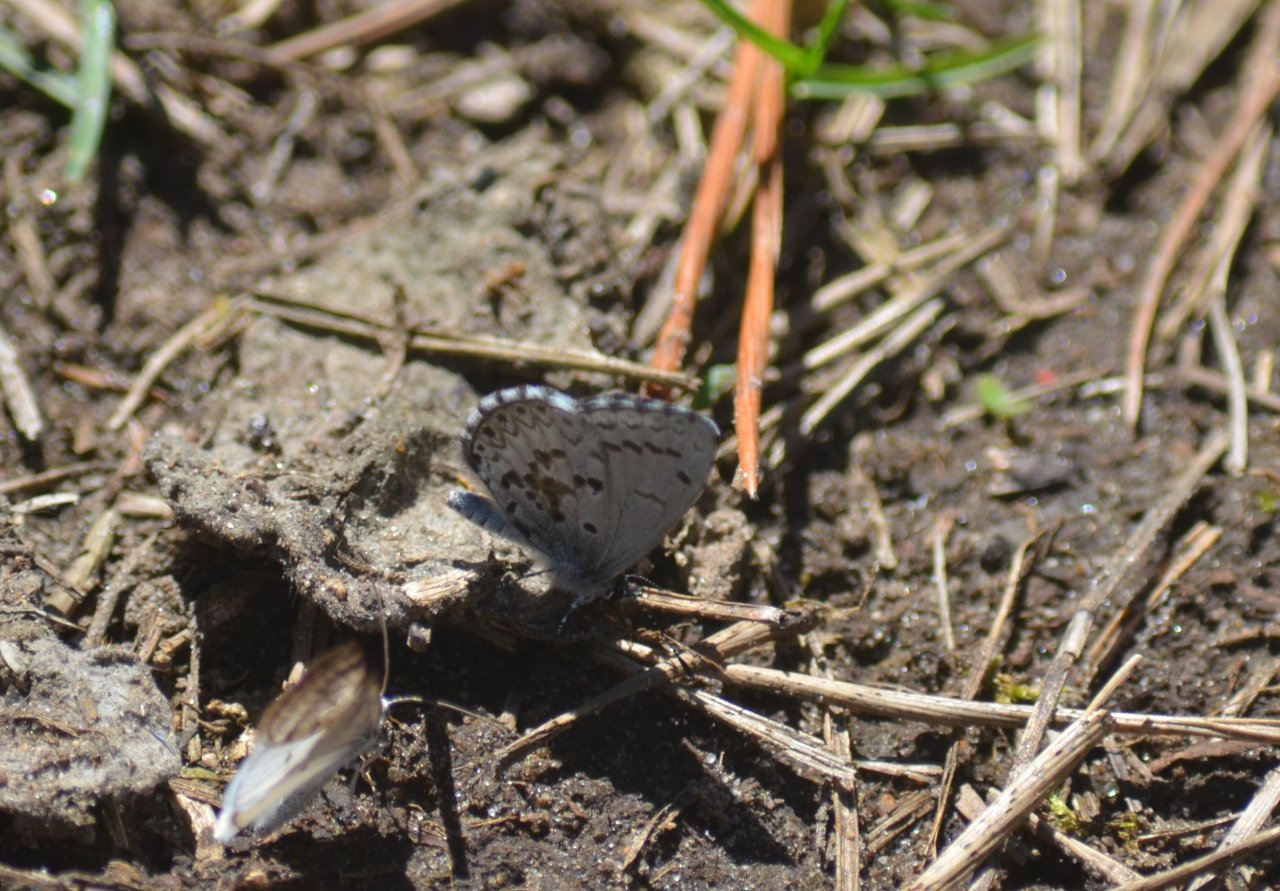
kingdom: Animalia
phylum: Arthropoda
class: Insecta
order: Lepidoptera
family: Lycaenidae
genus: Celastrina
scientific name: Celastrina lucia
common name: Northern Spring Azure
